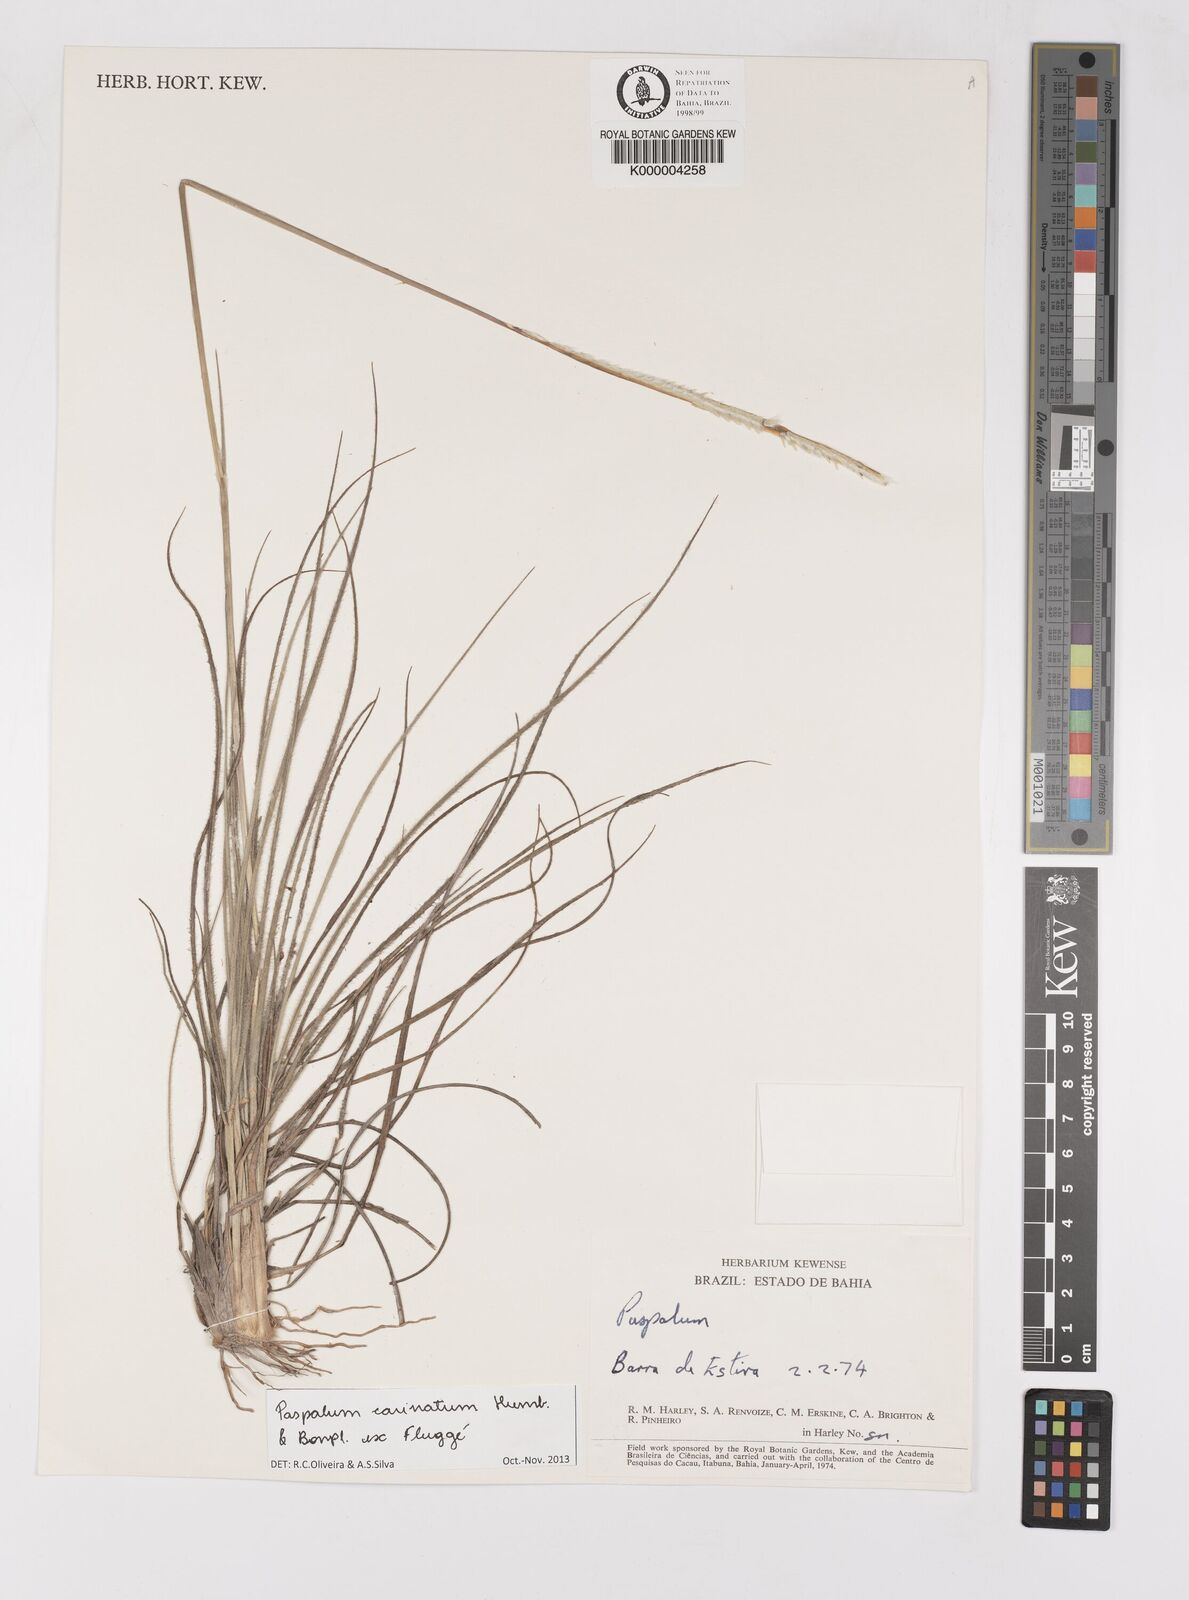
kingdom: Plantae
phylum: Tracheophyta
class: Liliopsida
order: Poales
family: Poaceae
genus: Paspalum
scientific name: Paspalum carinatum
